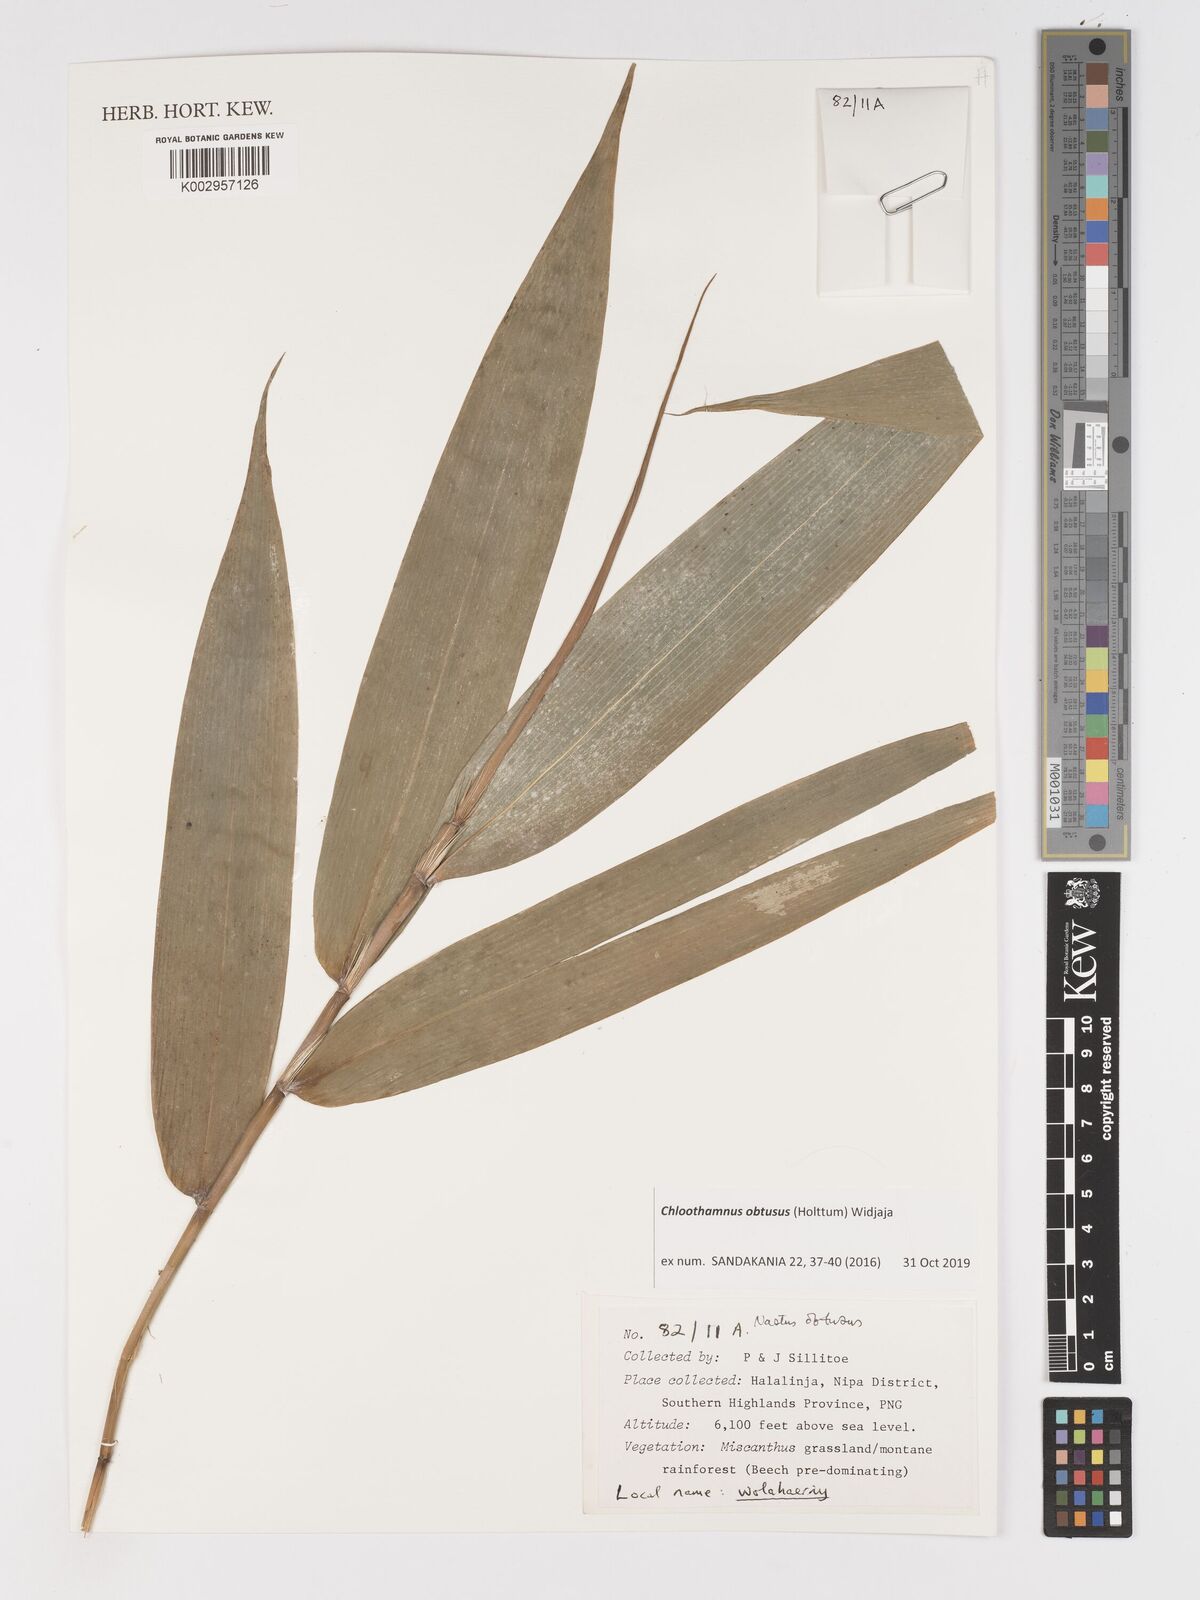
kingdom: Plantae
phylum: Tracheophyta
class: Liliopsida
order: Poales
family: Poaceae
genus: Chloothamnus
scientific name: Chloothamnus obtusus
